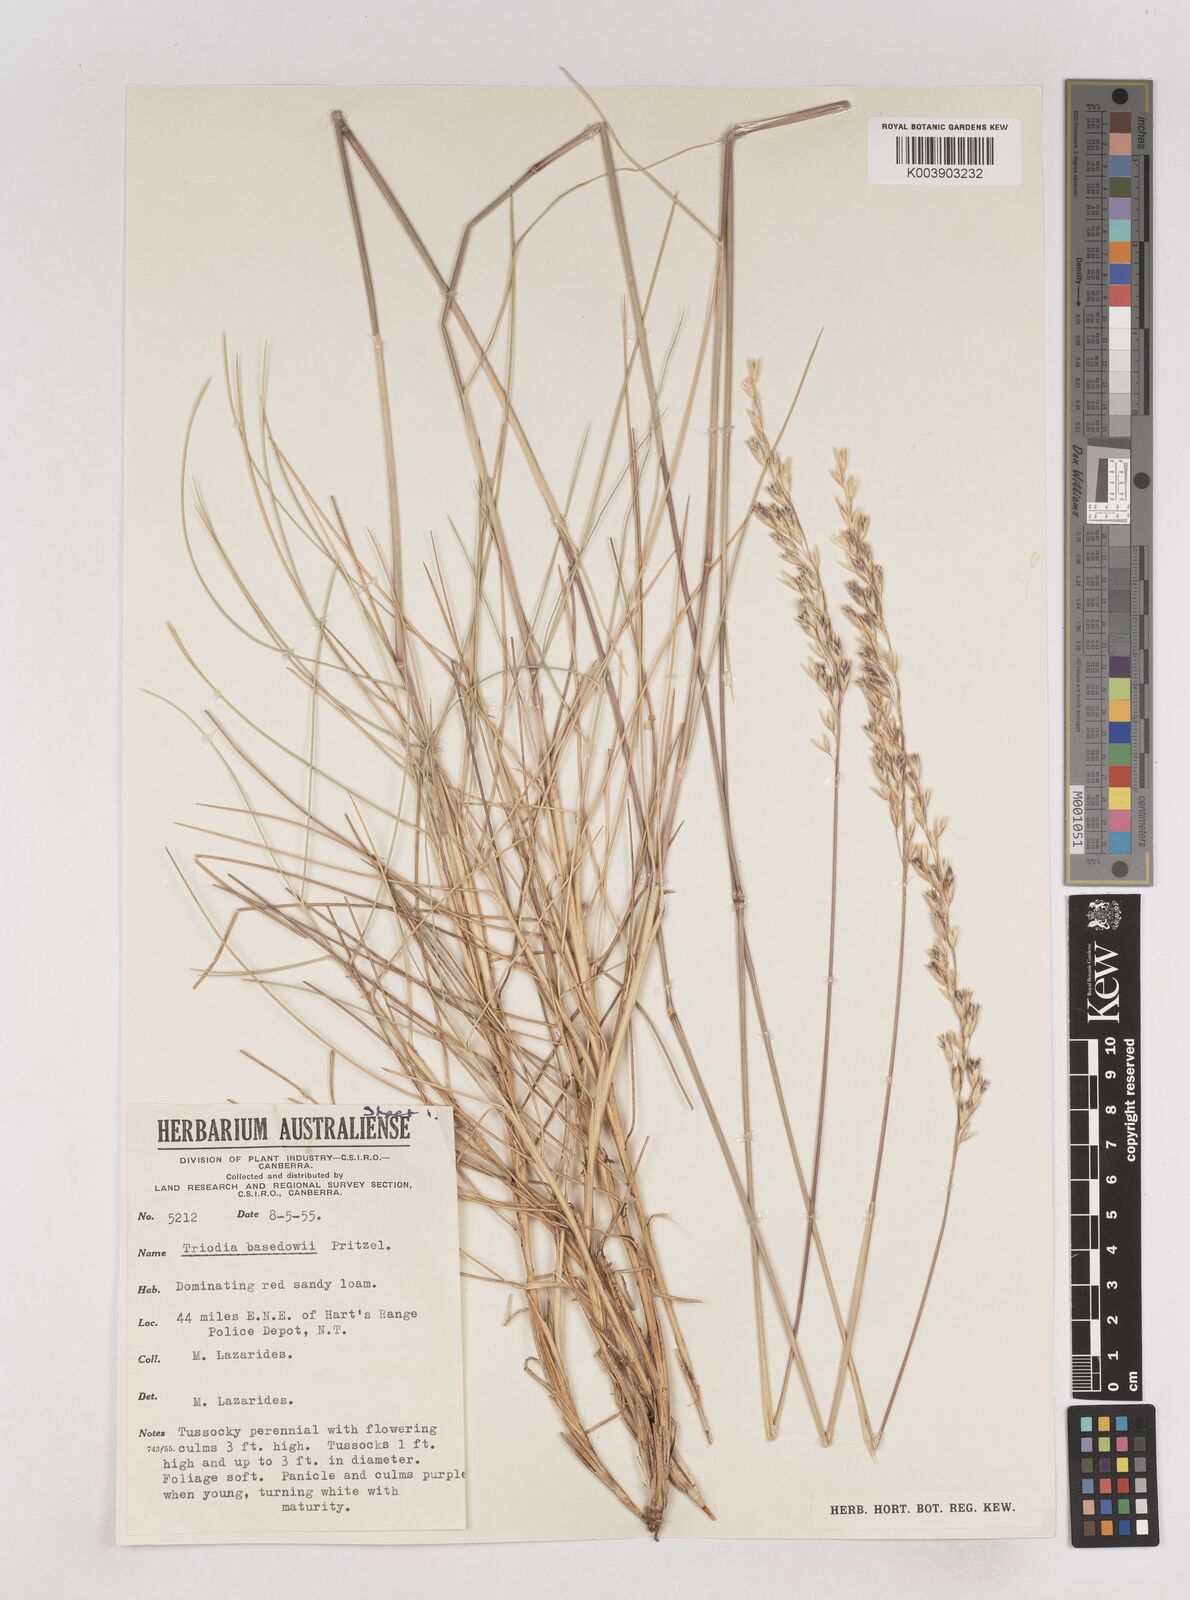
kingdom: Plantae
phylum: Tracheophyta
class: Liliopsida
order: Poales
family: Poaceae
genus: Triodia
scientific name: Triodia basedowii
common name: Hard spinifex
